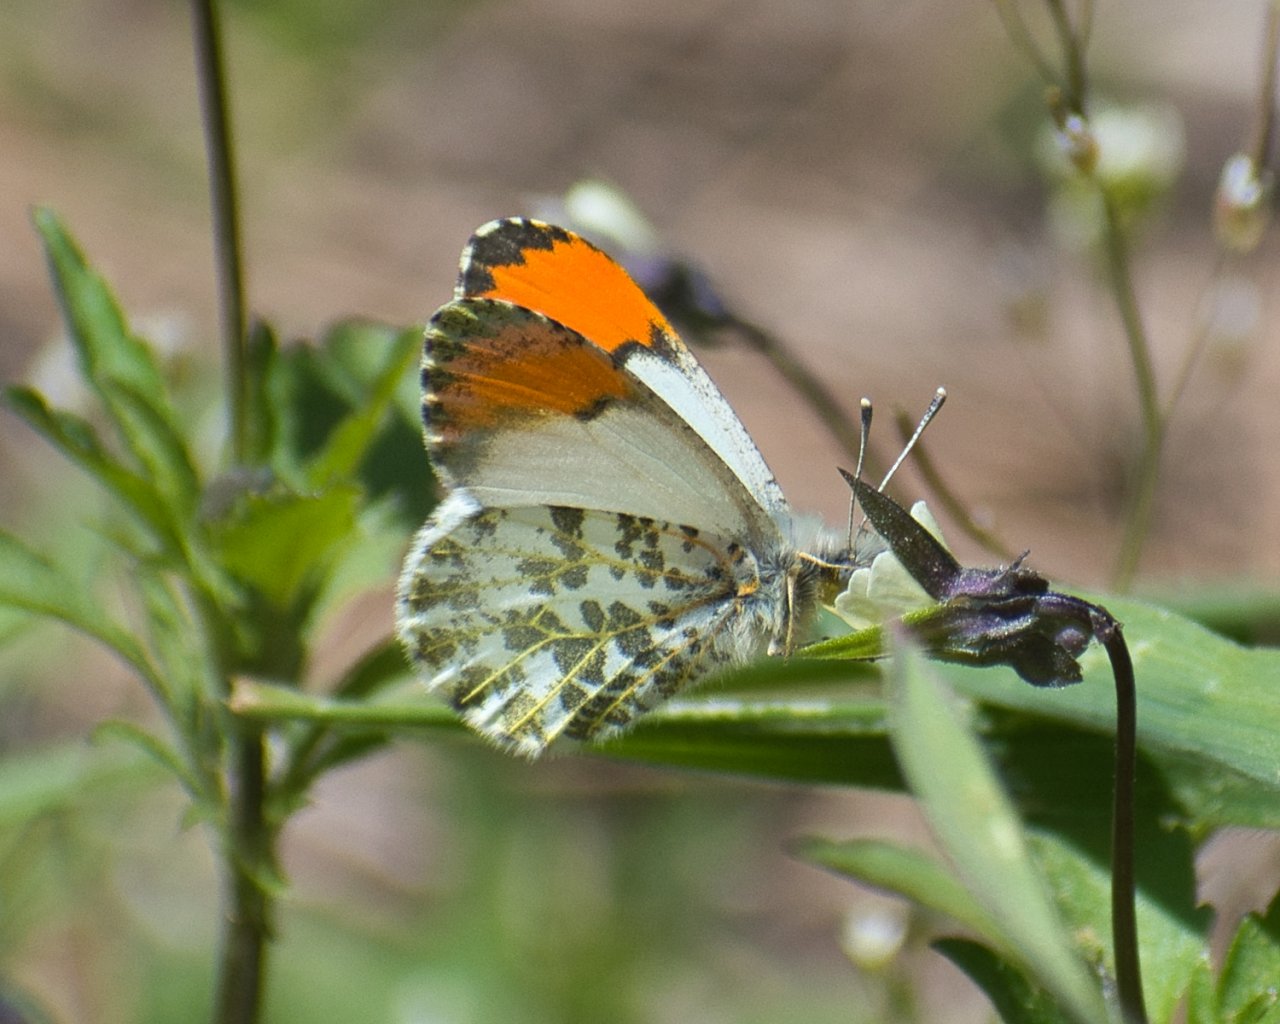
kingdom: Animalia
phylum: Arthropoda
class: Insecta
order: Lepidoptera
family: Pieridae
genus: Anthocharis
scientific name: Anthocharis sara
